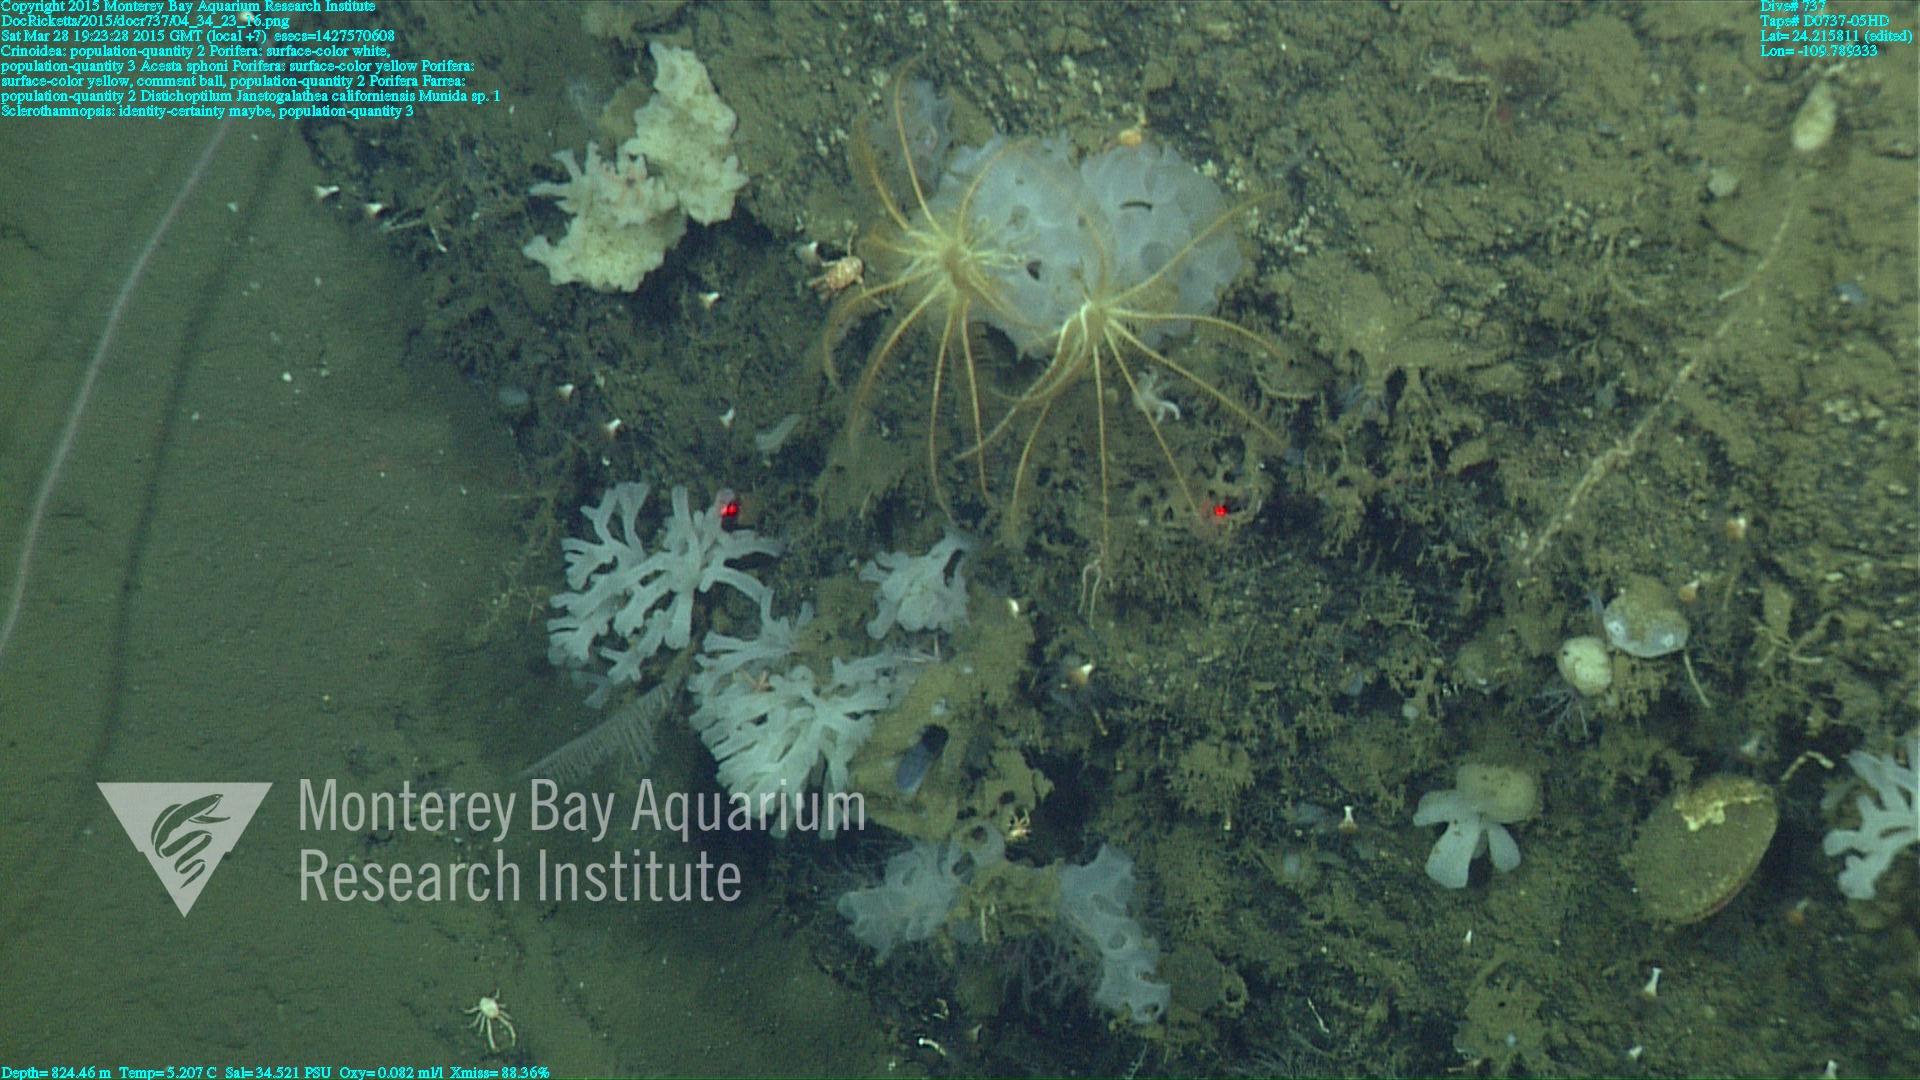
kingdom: Animalia
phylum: Cnidaria
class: Anthozoa
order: Scleralcyonacea
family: Protoptilidae
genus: Distichoptilum
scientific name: Distichoptilum
